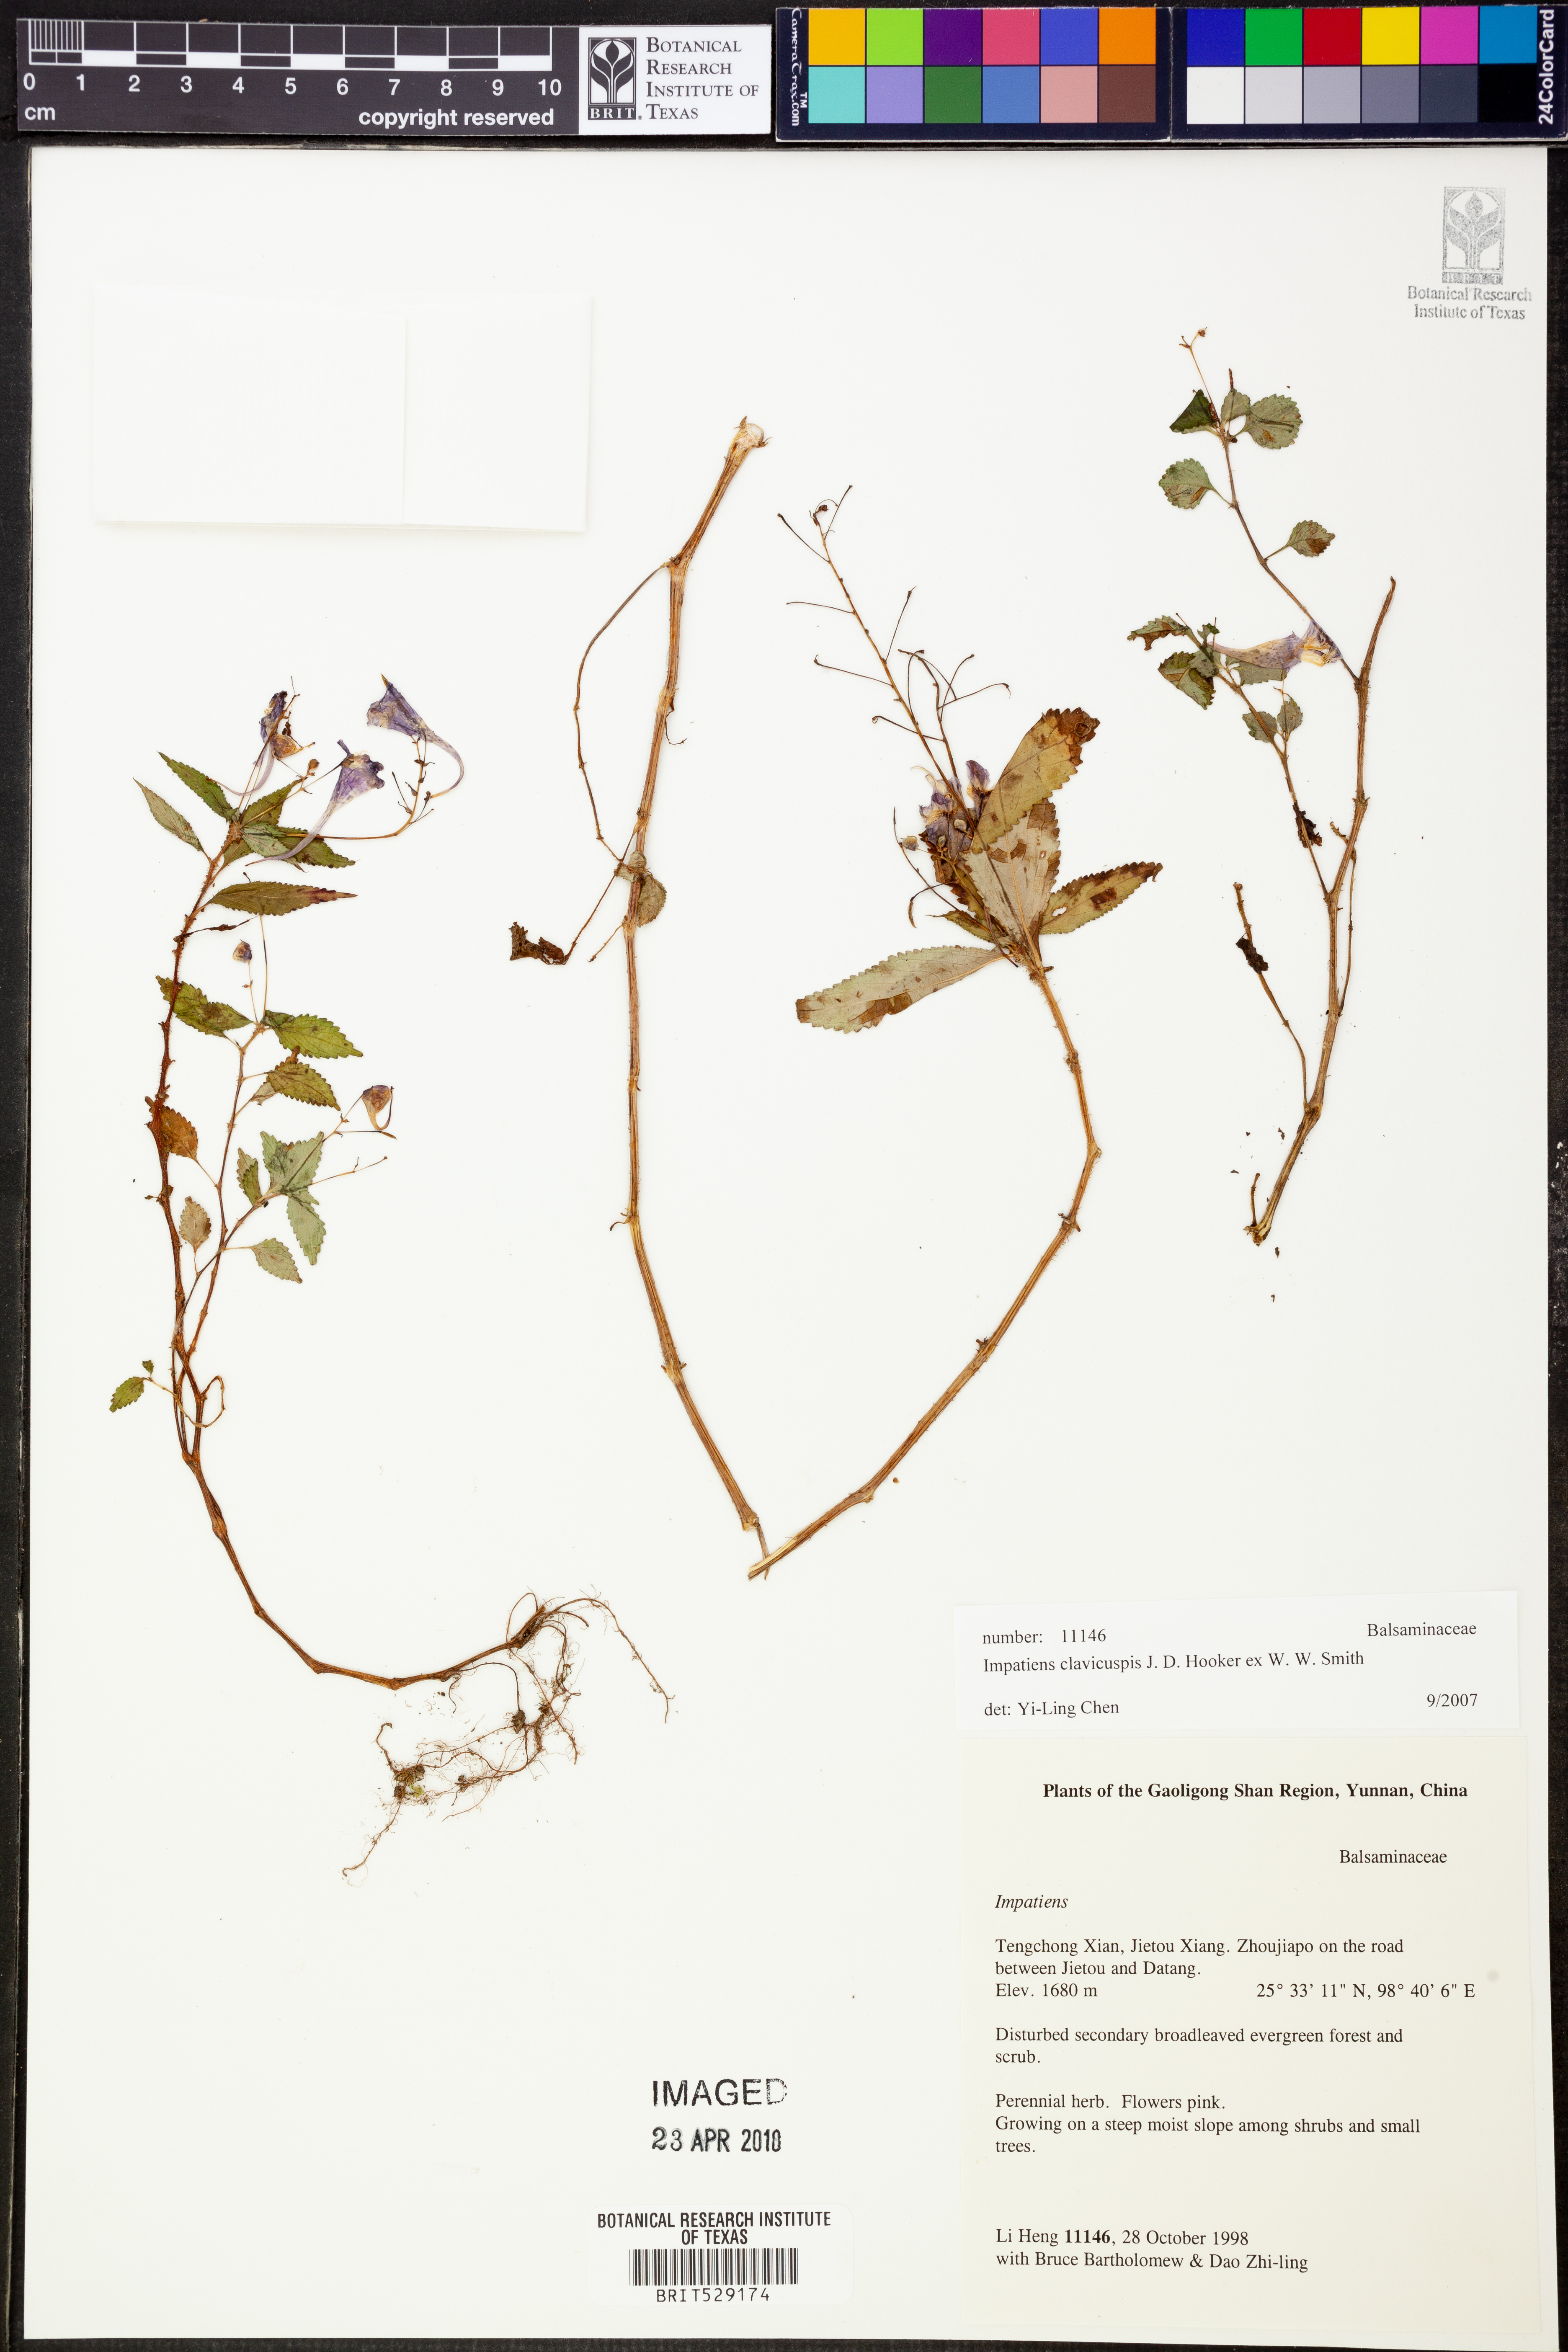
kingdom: Plantae
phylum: Tracheophyta
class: Magnoliopsida
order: Ericales
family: Balsaminaceae
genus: Impatiens
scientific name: Impatiens clavicuspis
